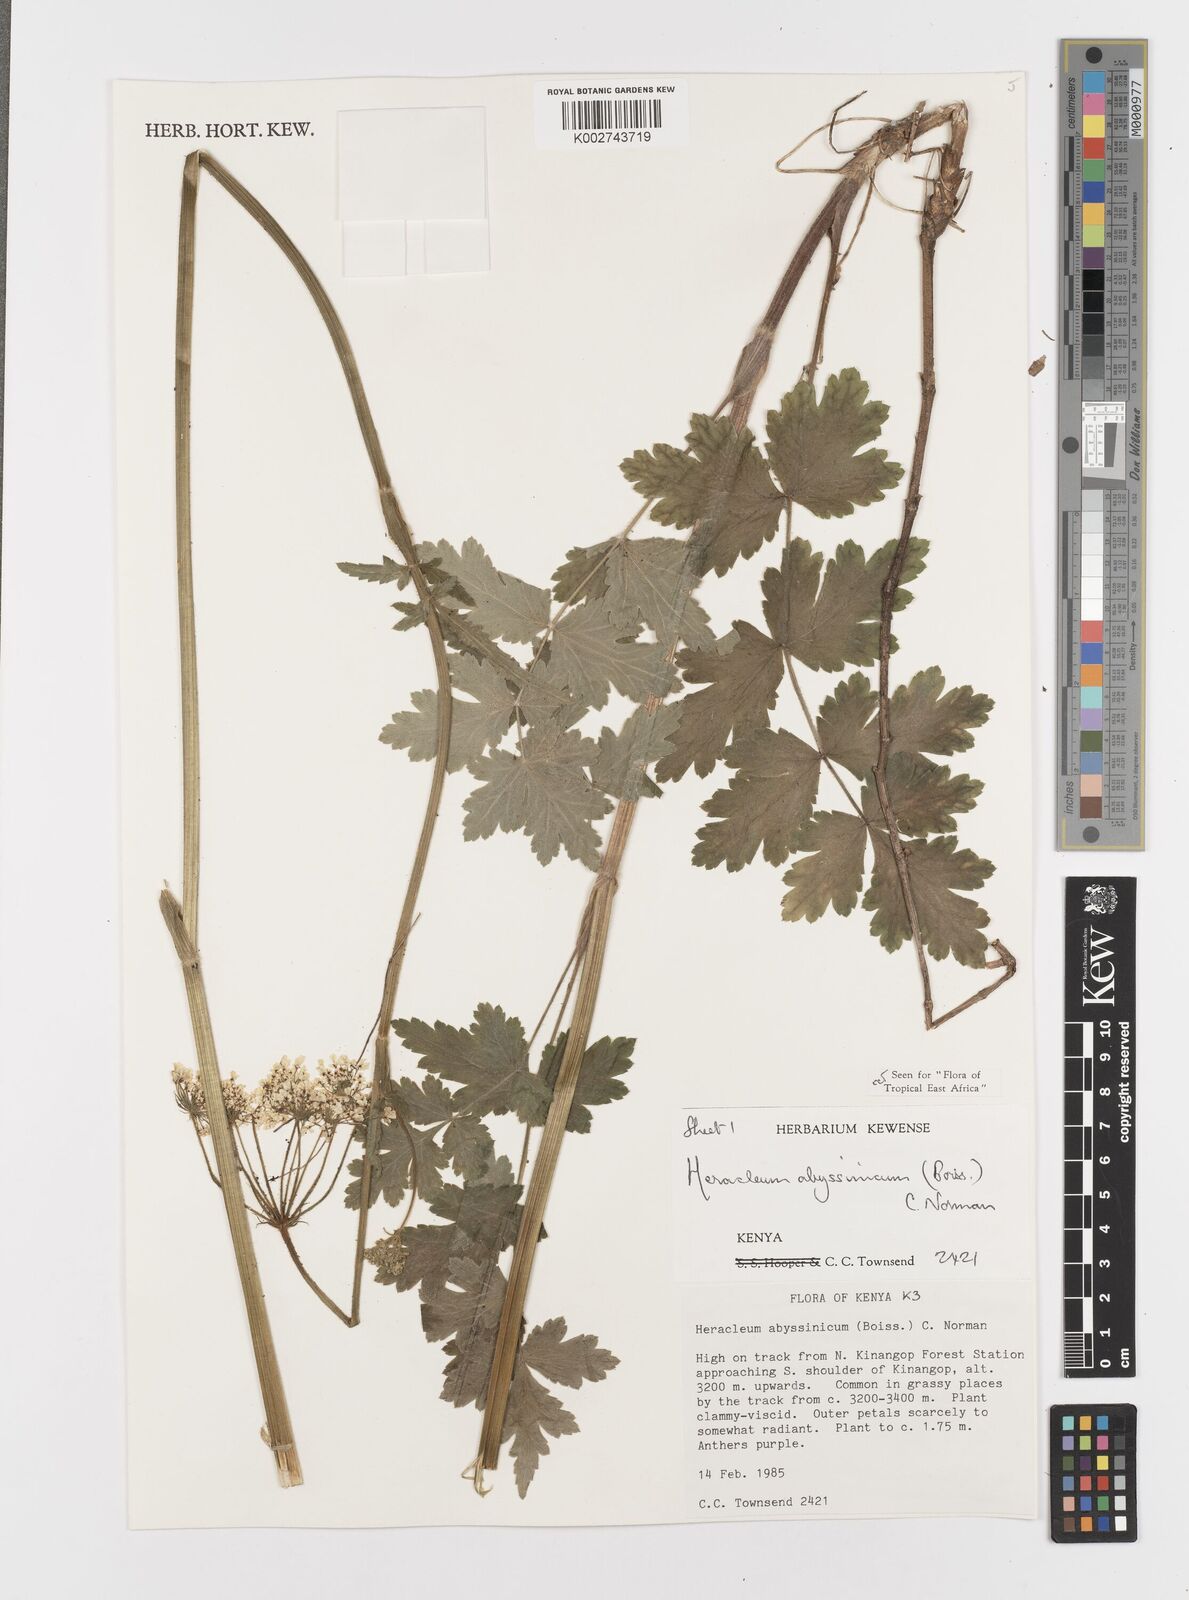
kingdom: Plantae
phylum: Tracheophyta
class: Magnoliopsida
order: Apiales
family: Apiaceae
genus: Heracleum
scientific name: Heracleum abyssinicum
